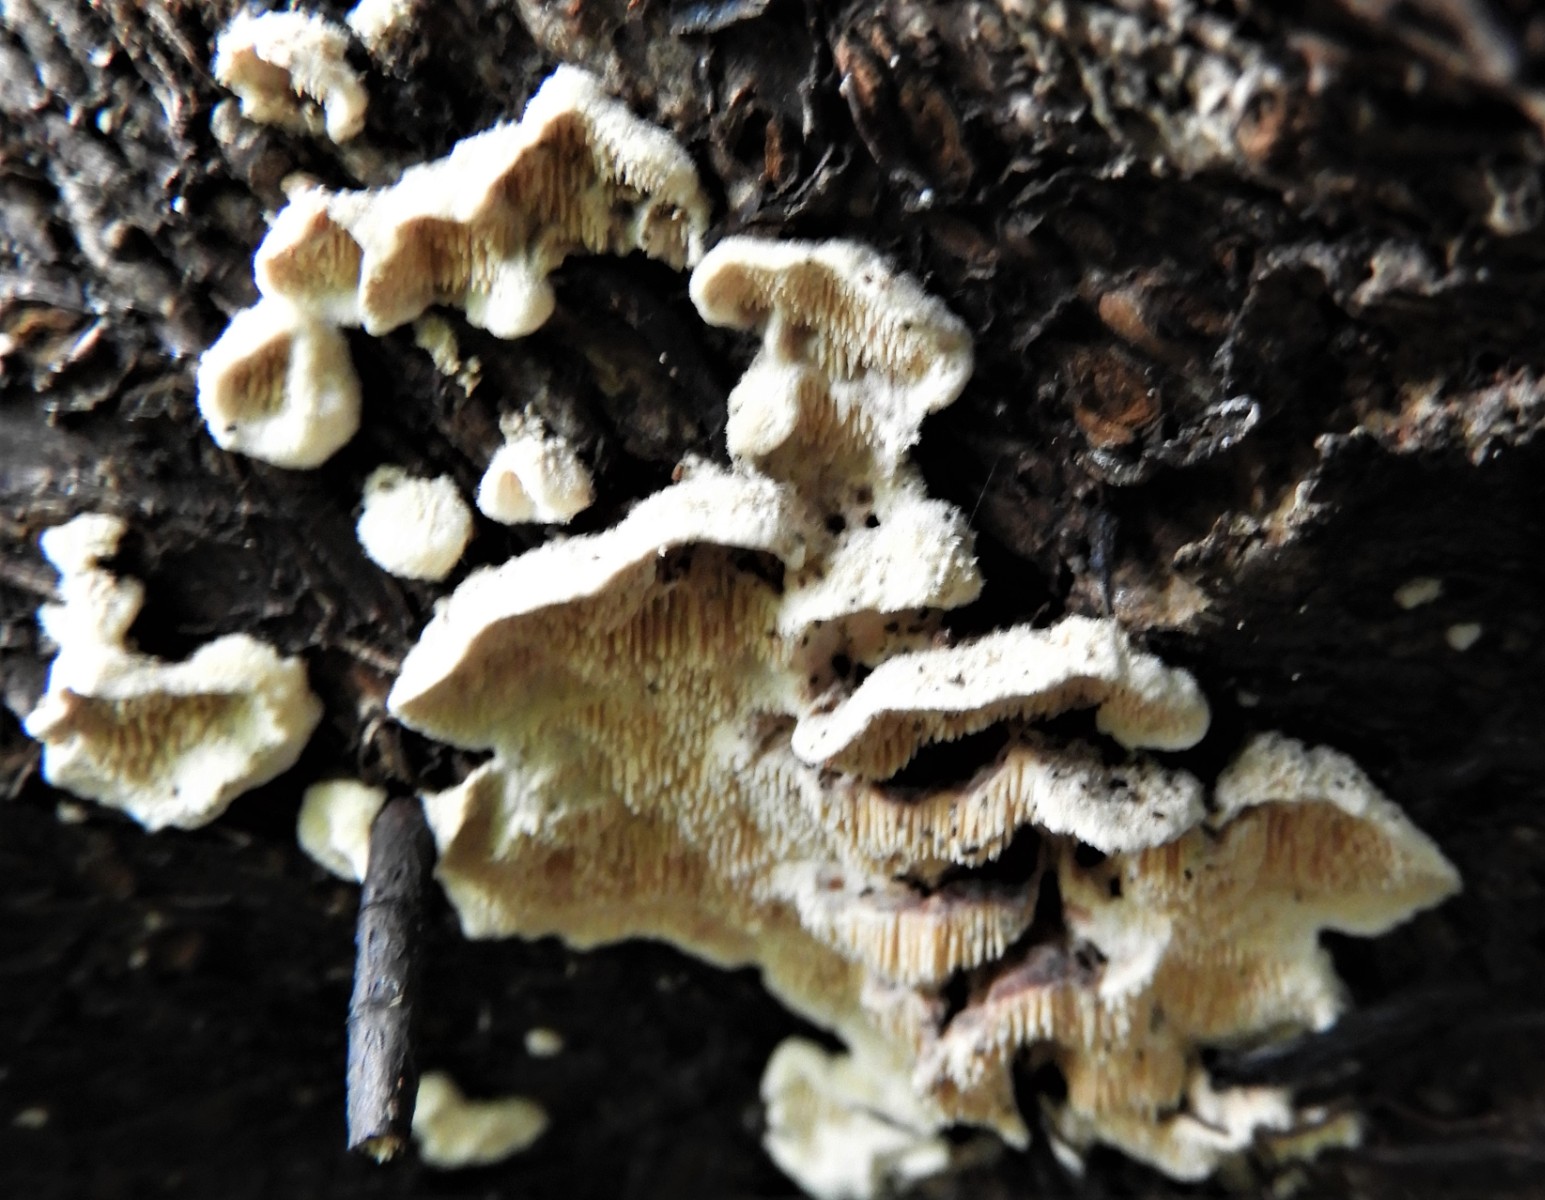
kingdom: Fungi
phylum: Basidiomycota
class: Agaricomycetes
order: Polyporales
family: Steccherinaceae
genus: Steccherinum
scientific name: Steccherinum
